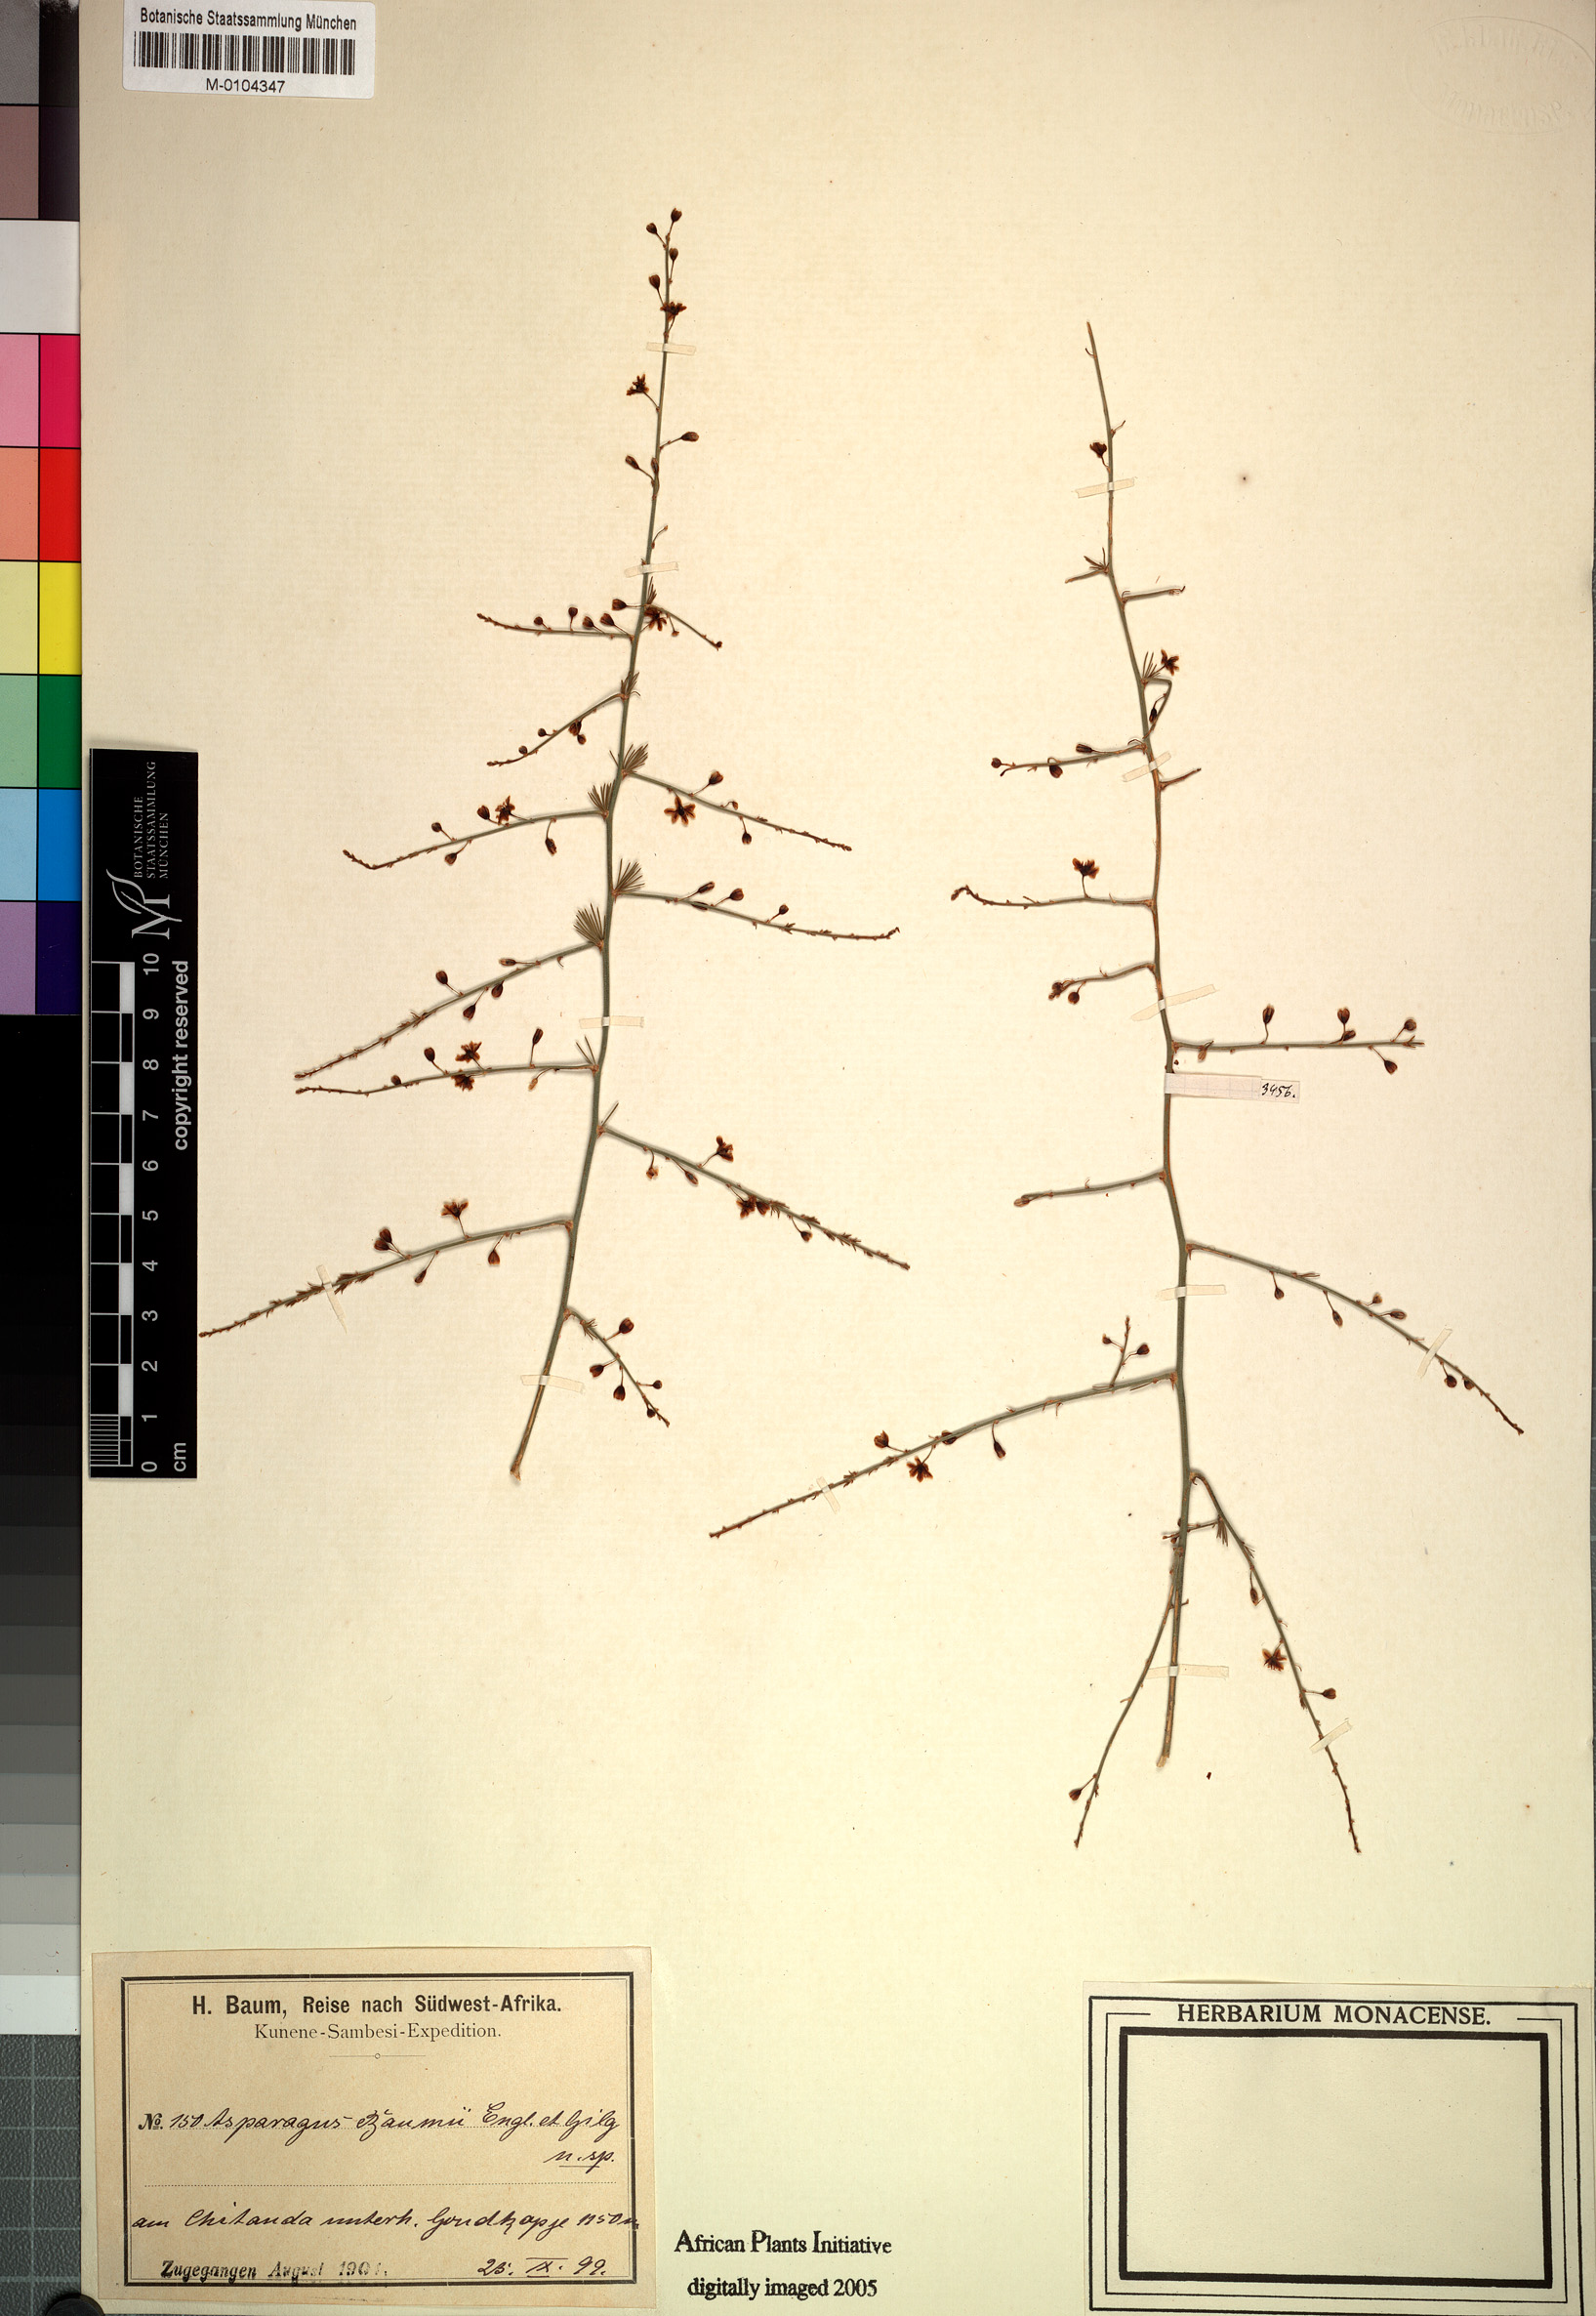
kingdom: Plantae
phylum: Tracheophyta
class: Liliopsida
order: Asparagales
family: Asparagaceae
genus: Asparagus
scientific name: Asparagus baumii
